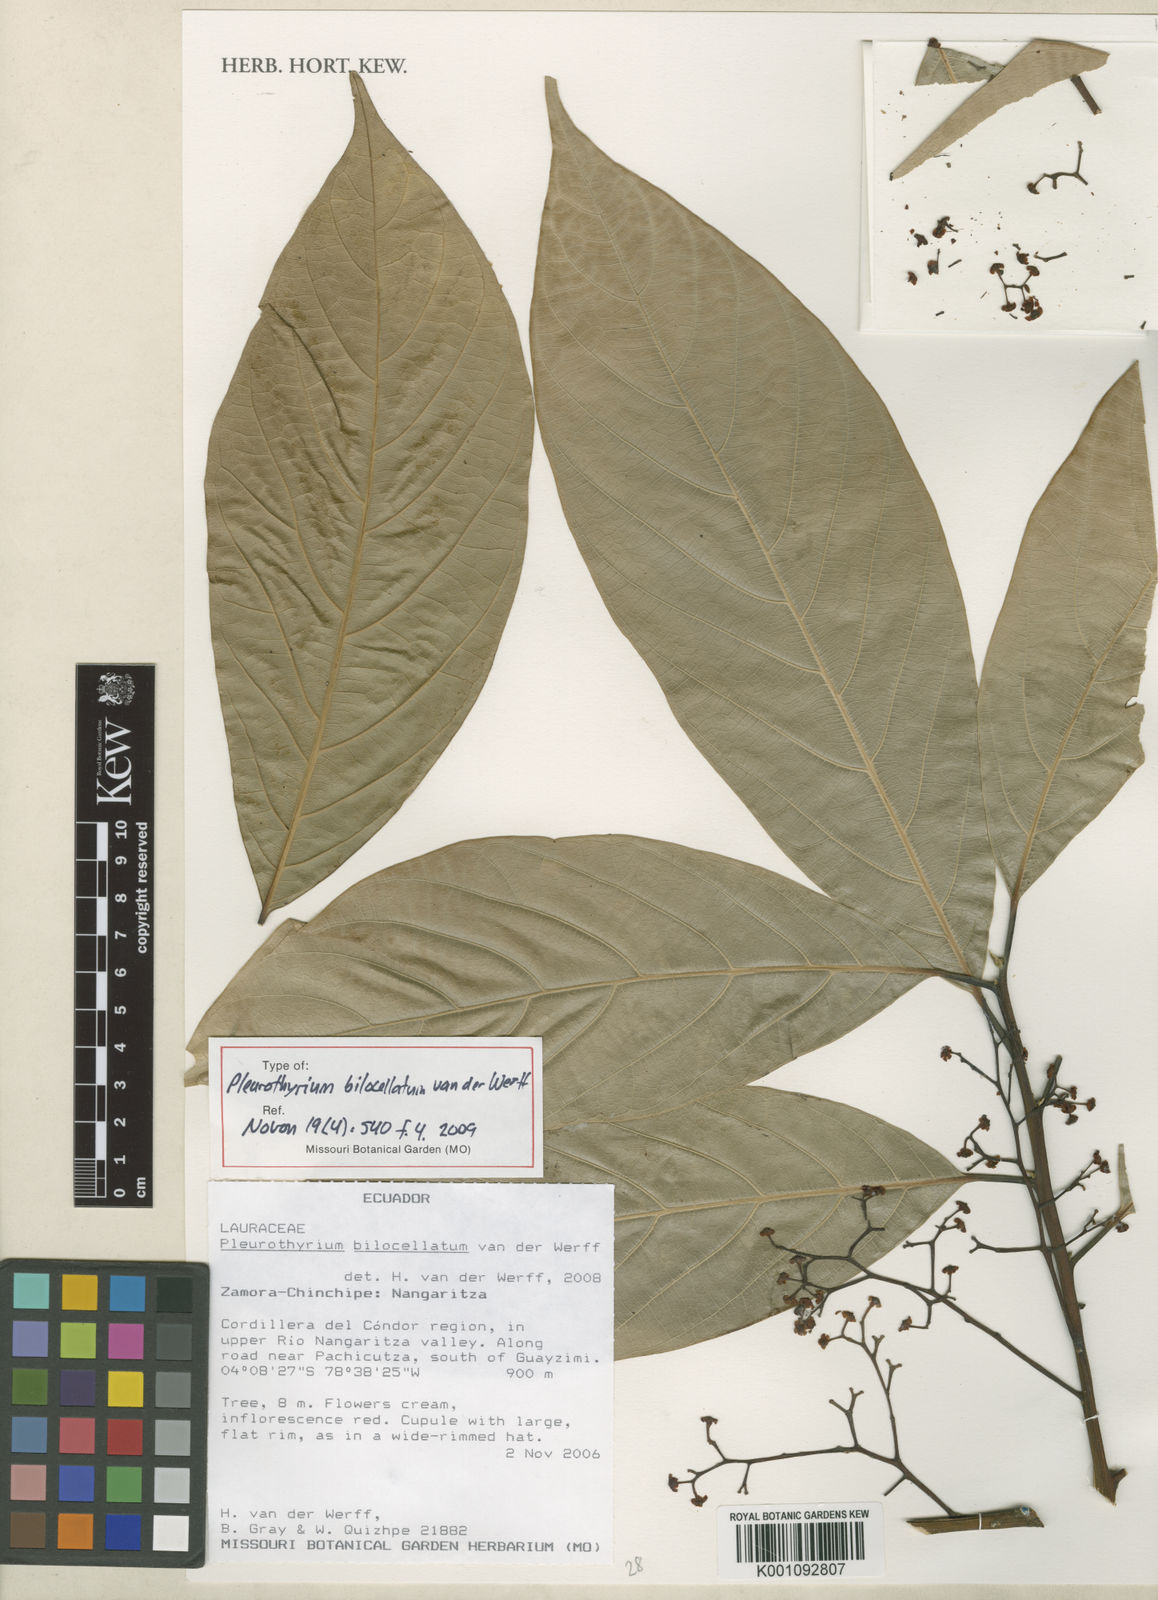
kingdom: Plantae
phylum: Tracheophyta
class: Magnoliopsida
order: Laurales
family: Lauraceae
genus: Pleurothyrium
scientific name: Pleurothyrium bilocellatum
